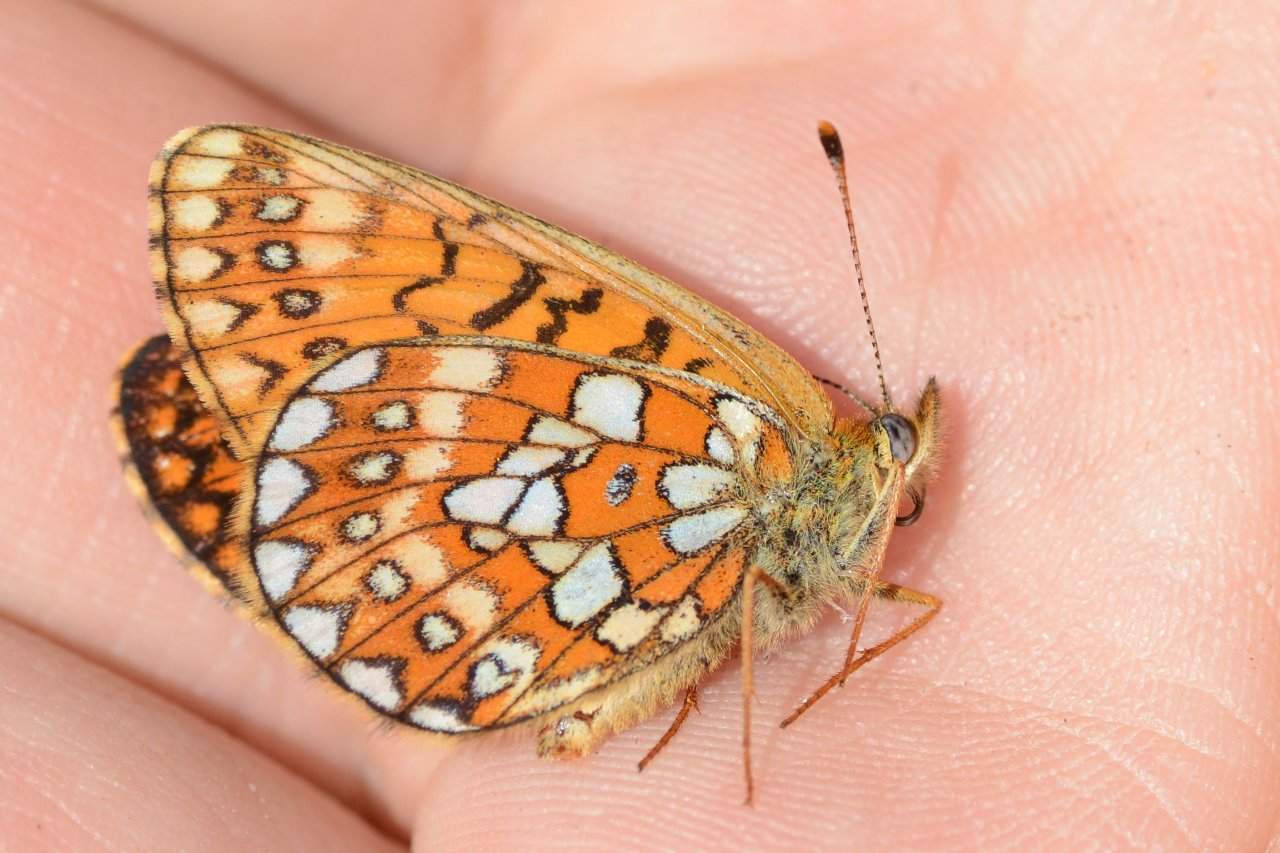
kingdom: Animalia
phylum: Arthropoda
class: Insecta
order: Lepidoptera
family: Nymphalidae
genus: Boloria
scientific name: Boloria eunomia
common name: Bog Fritillary
